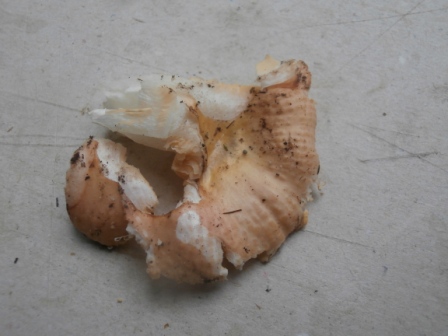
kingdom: Fungi
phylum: Basidiomycota
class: Agaricomycetes
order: Russulales
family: Russulaceae
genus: Russula
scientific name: Russula risigallina
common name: abrikos-skørhat
